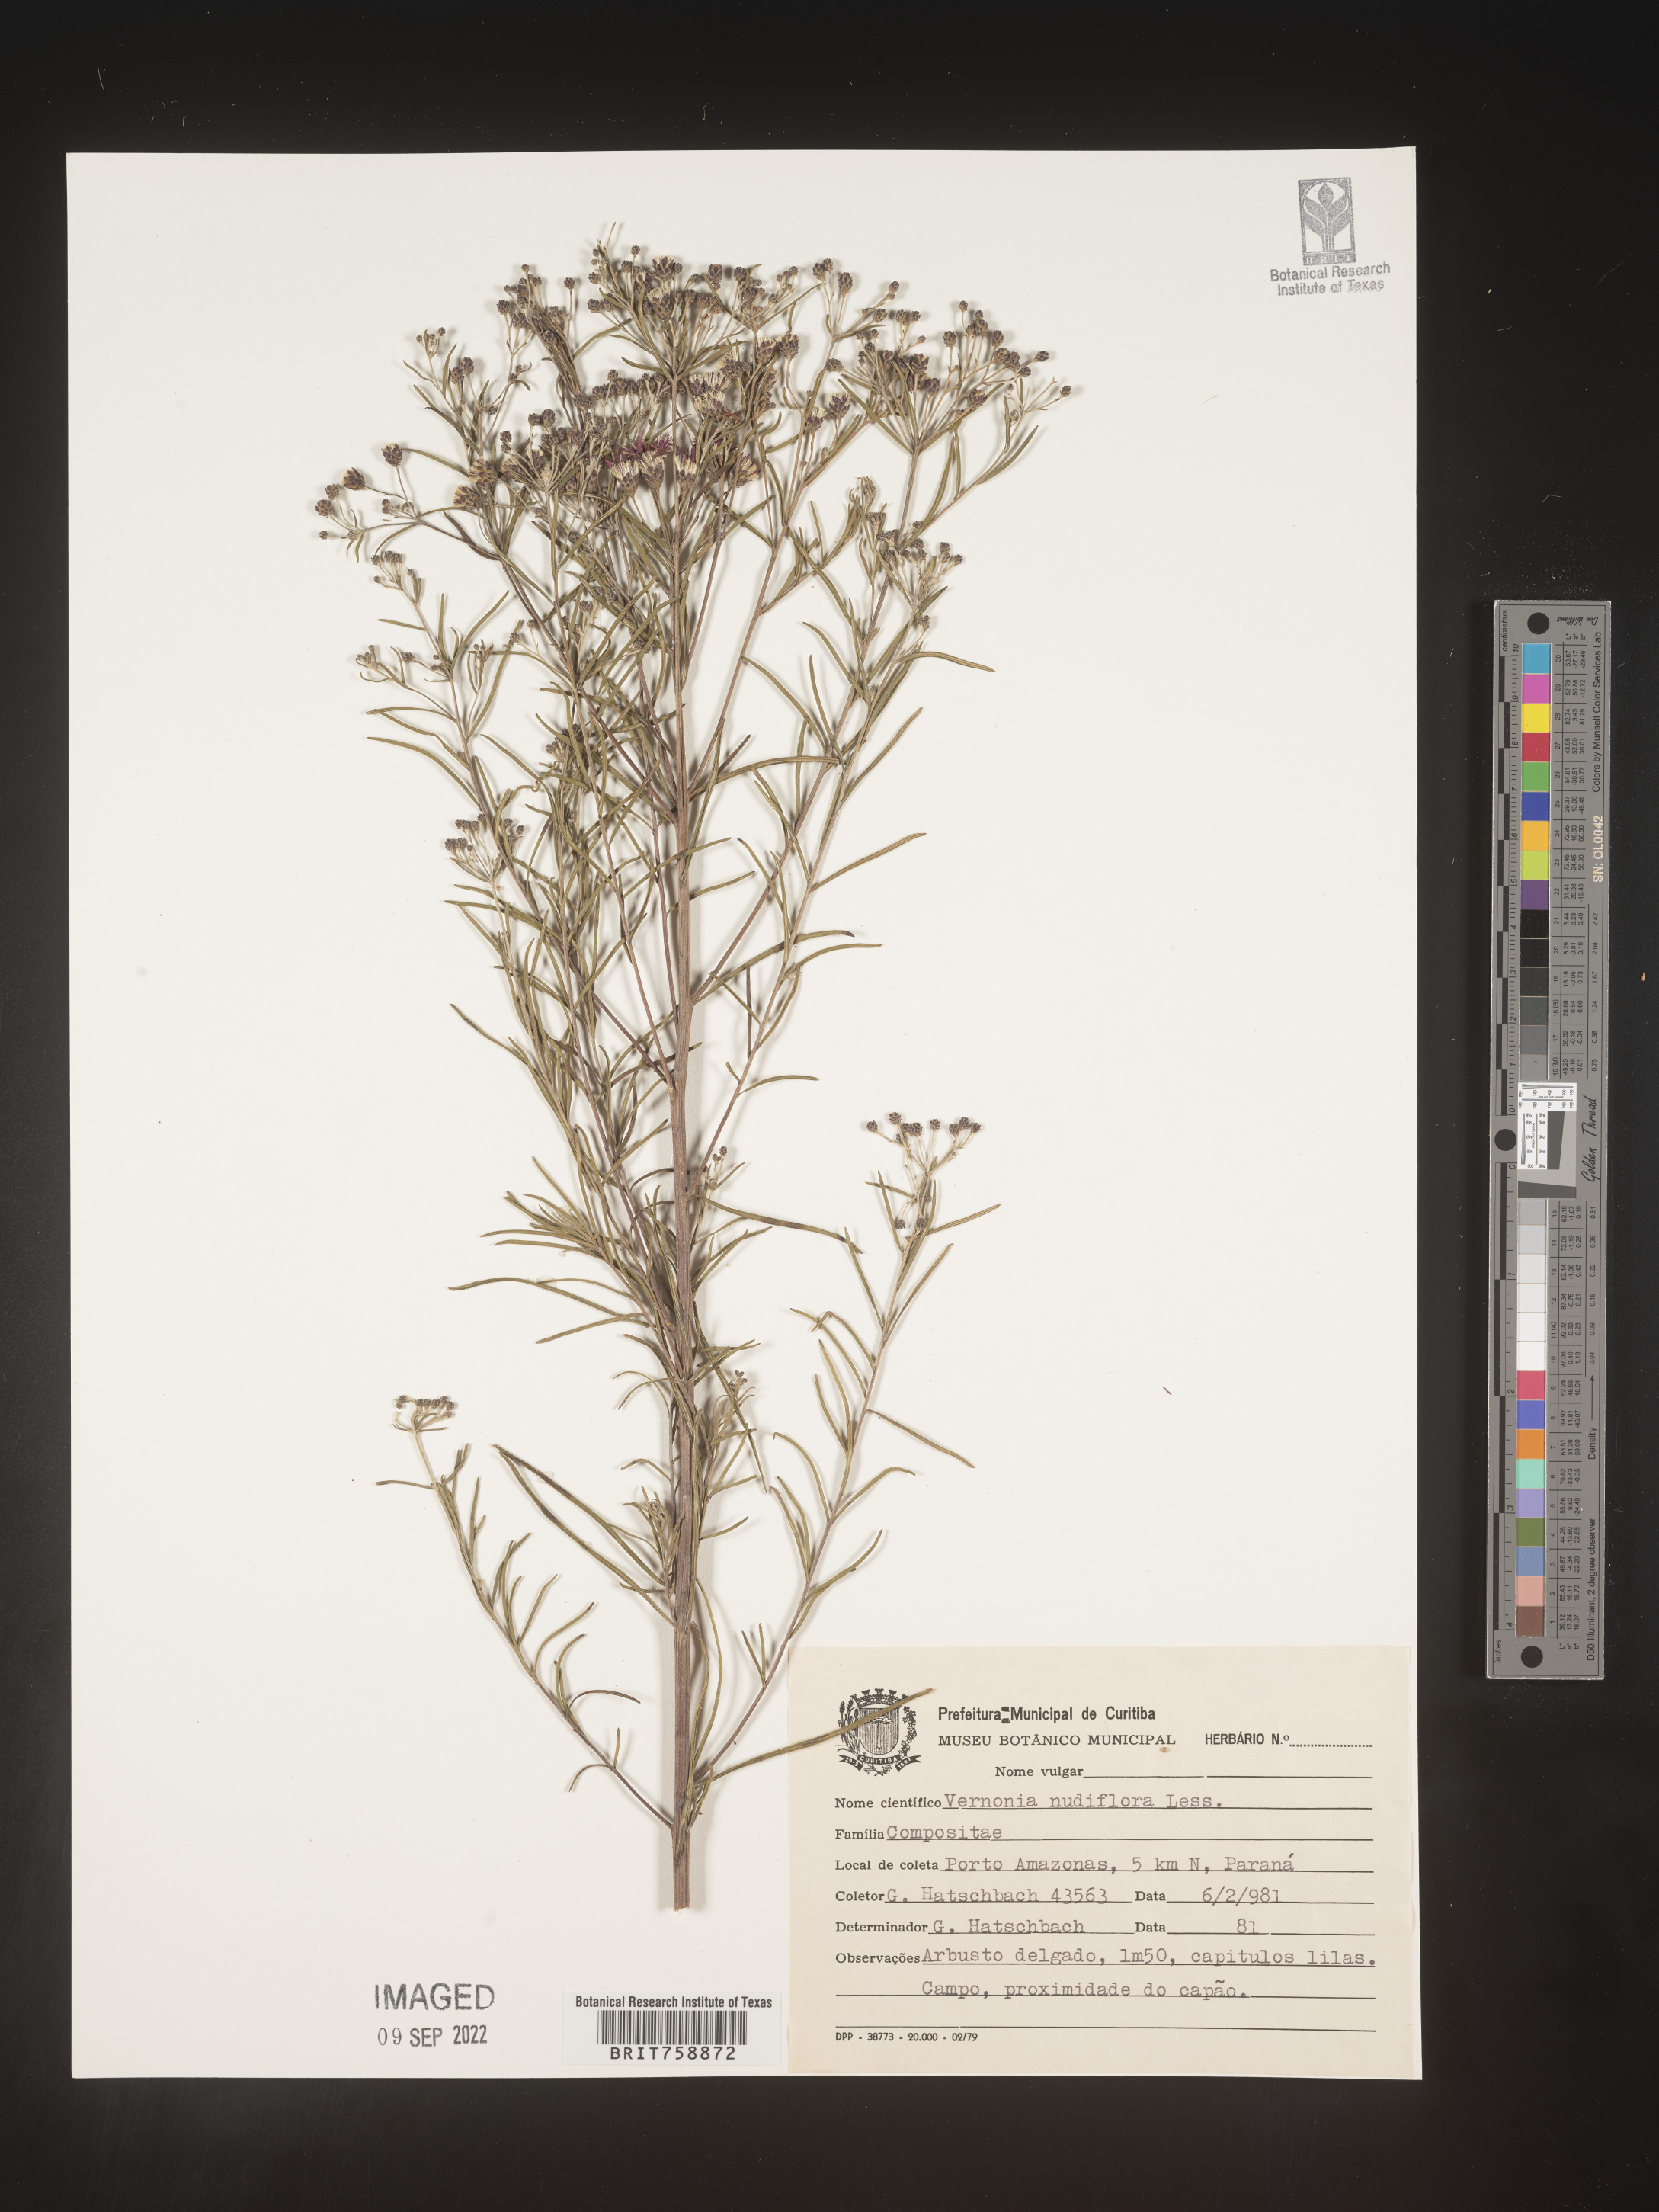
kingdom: Plantae
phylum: Tracheophyta
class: Magnoliopsida
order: Asterales
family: Asteraceae
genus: Vernonia
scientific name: Vernonia
